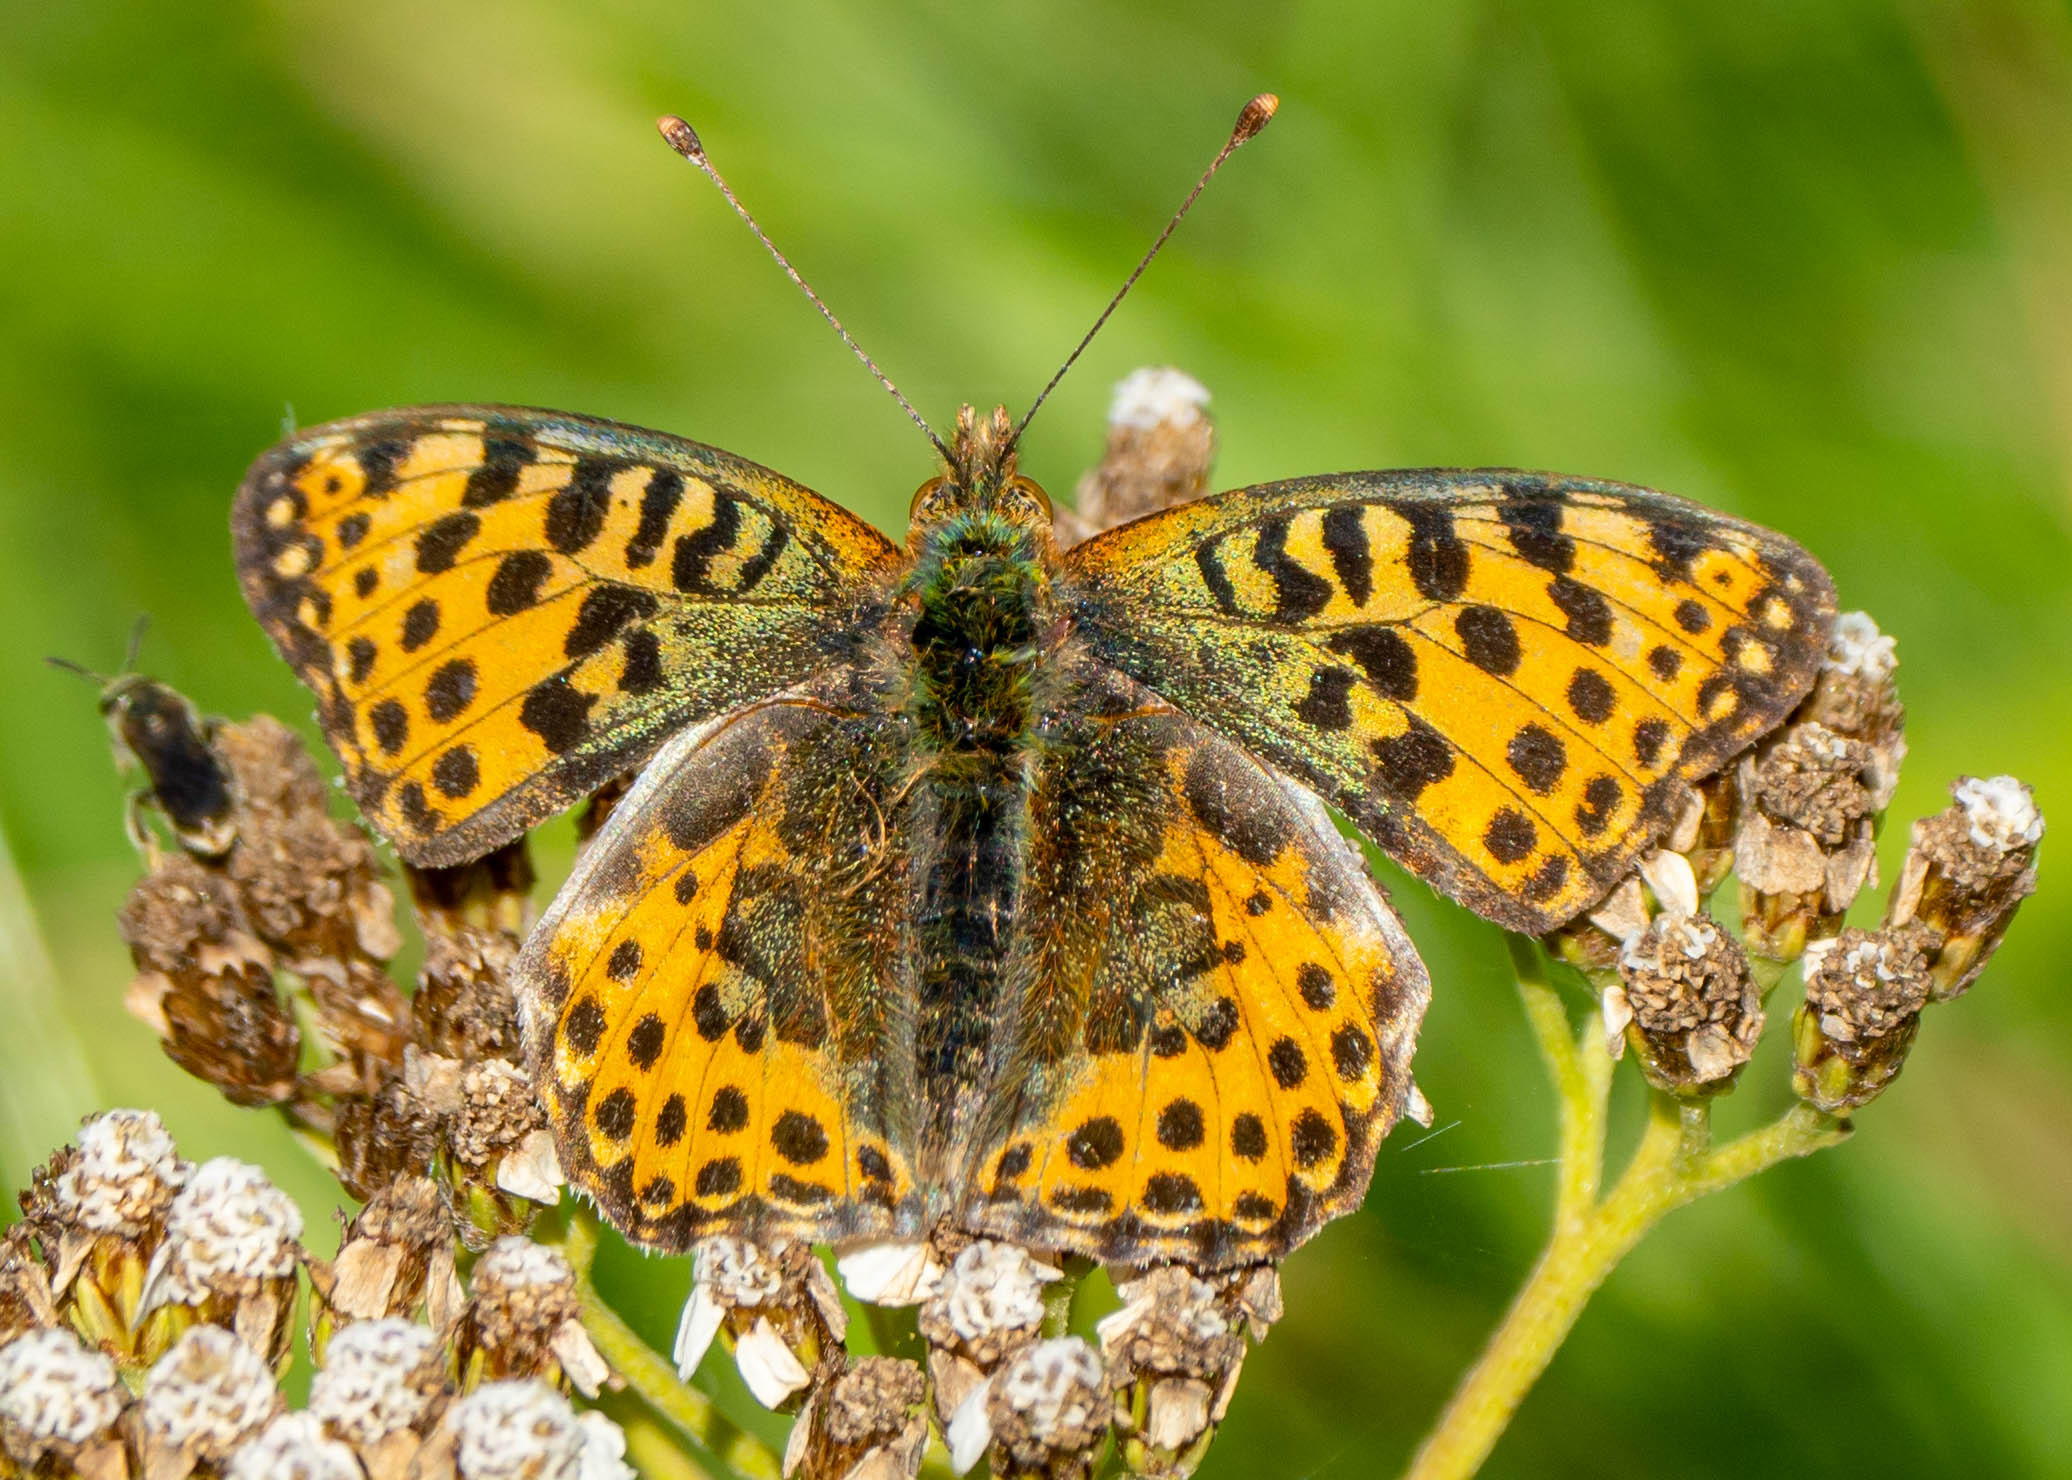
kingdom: Animalia
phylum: Arthropoda
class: Insecta
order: Lepidoptera
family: Nymphalidae
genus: Issoria
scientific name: Issoria lathonia
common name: Storplettet perlemorsommerfugl
